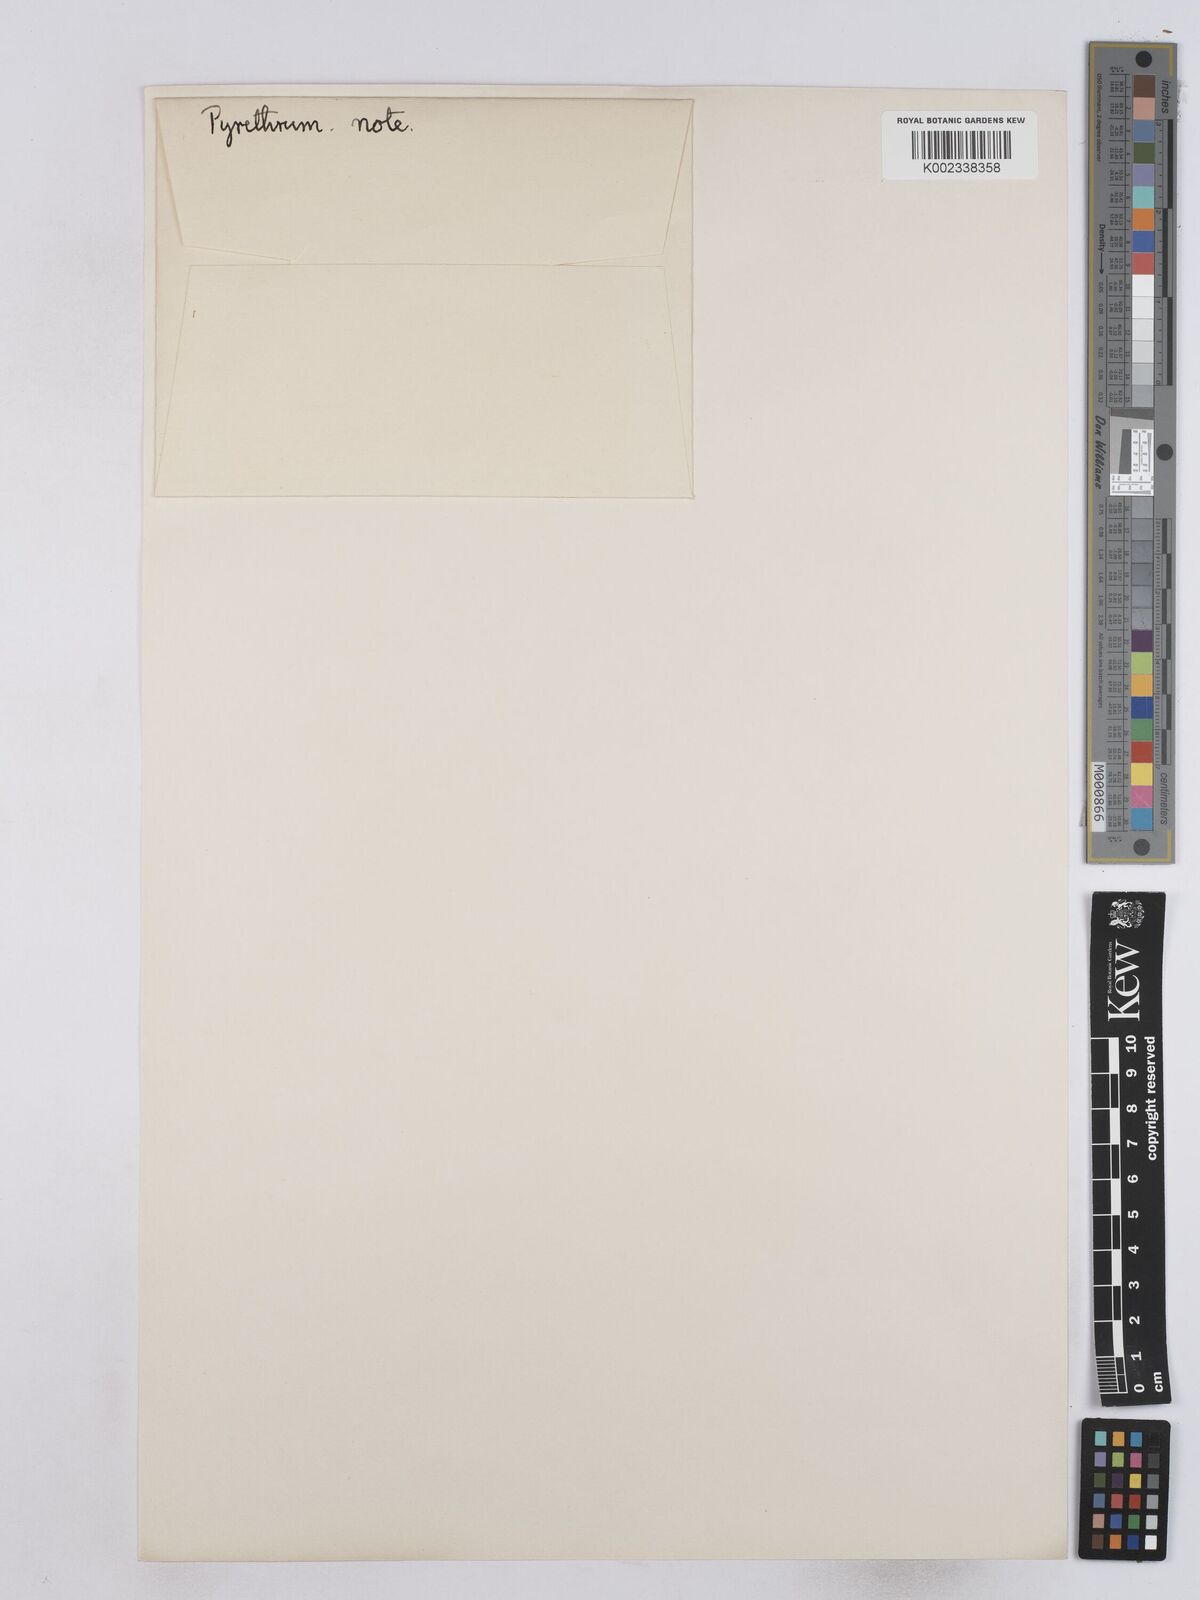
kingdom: Plantae
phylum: Tracheophyta
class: Magnoliopsida
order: Asterales
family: Asteraceae
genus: Tanacetum
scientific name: Tanacetum
